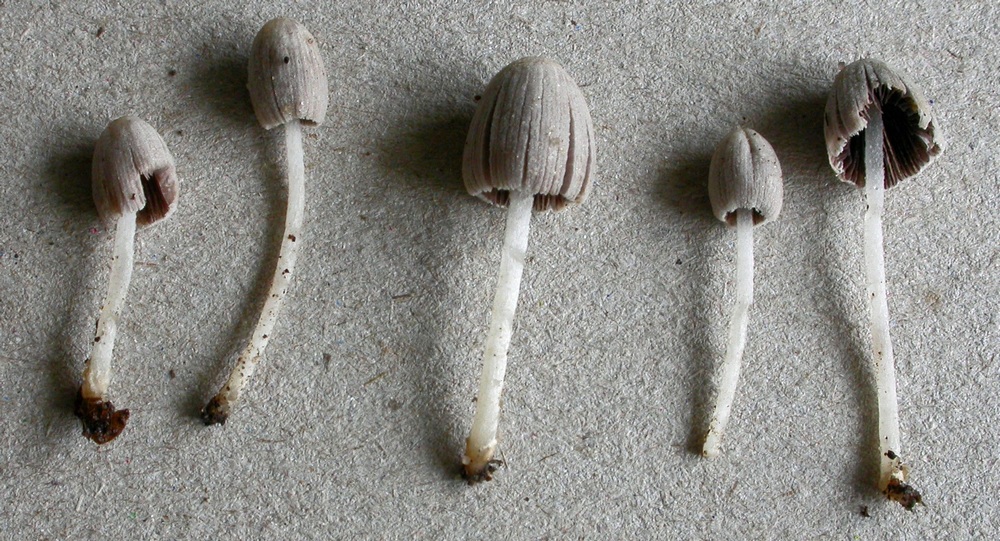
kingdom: Fungi
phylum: Basidiomycota
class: Agaricomycetes
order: Agaricales
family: Psathyrellaceae
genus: Coprinopsis
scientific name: Coprinopsis cortinata
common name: slør-blækhat
